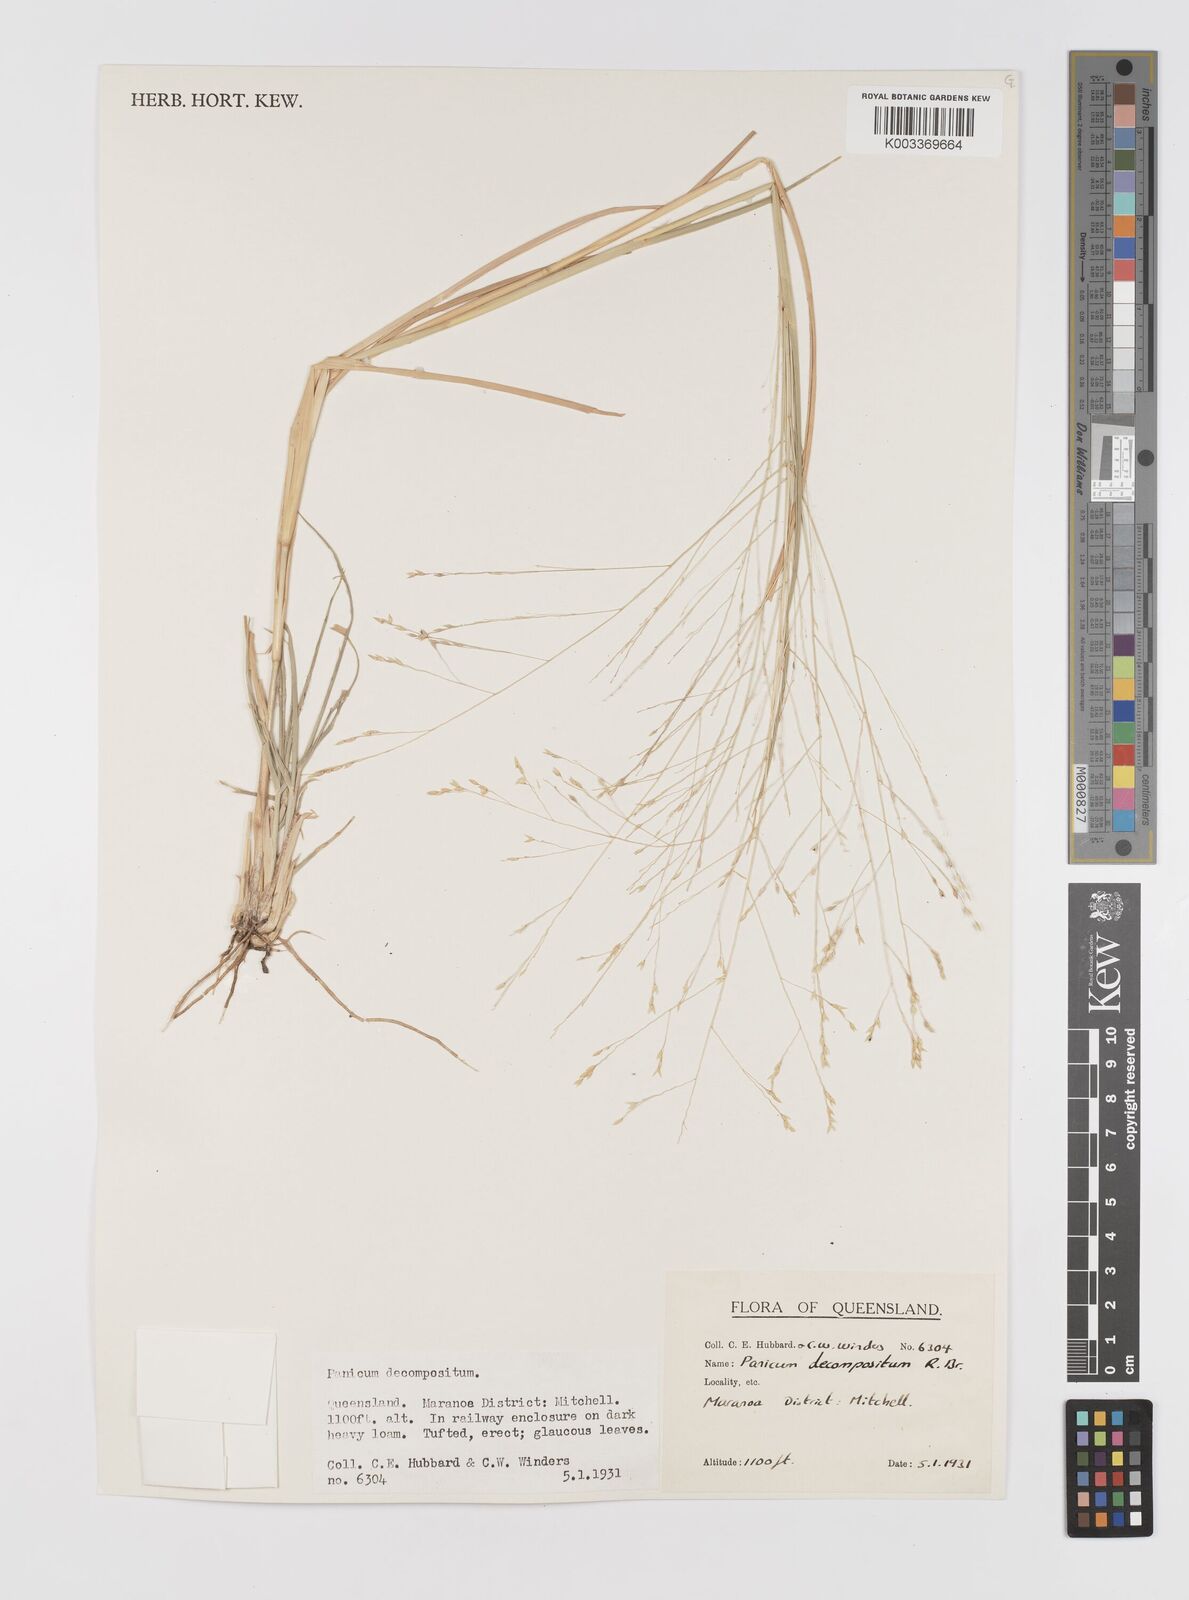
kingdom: Plantae
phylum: Tracheophyta
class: Liliopsida
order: Poales
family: Poaceae
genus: Panicum
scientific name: Panicum decompositum
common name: Australian millet
